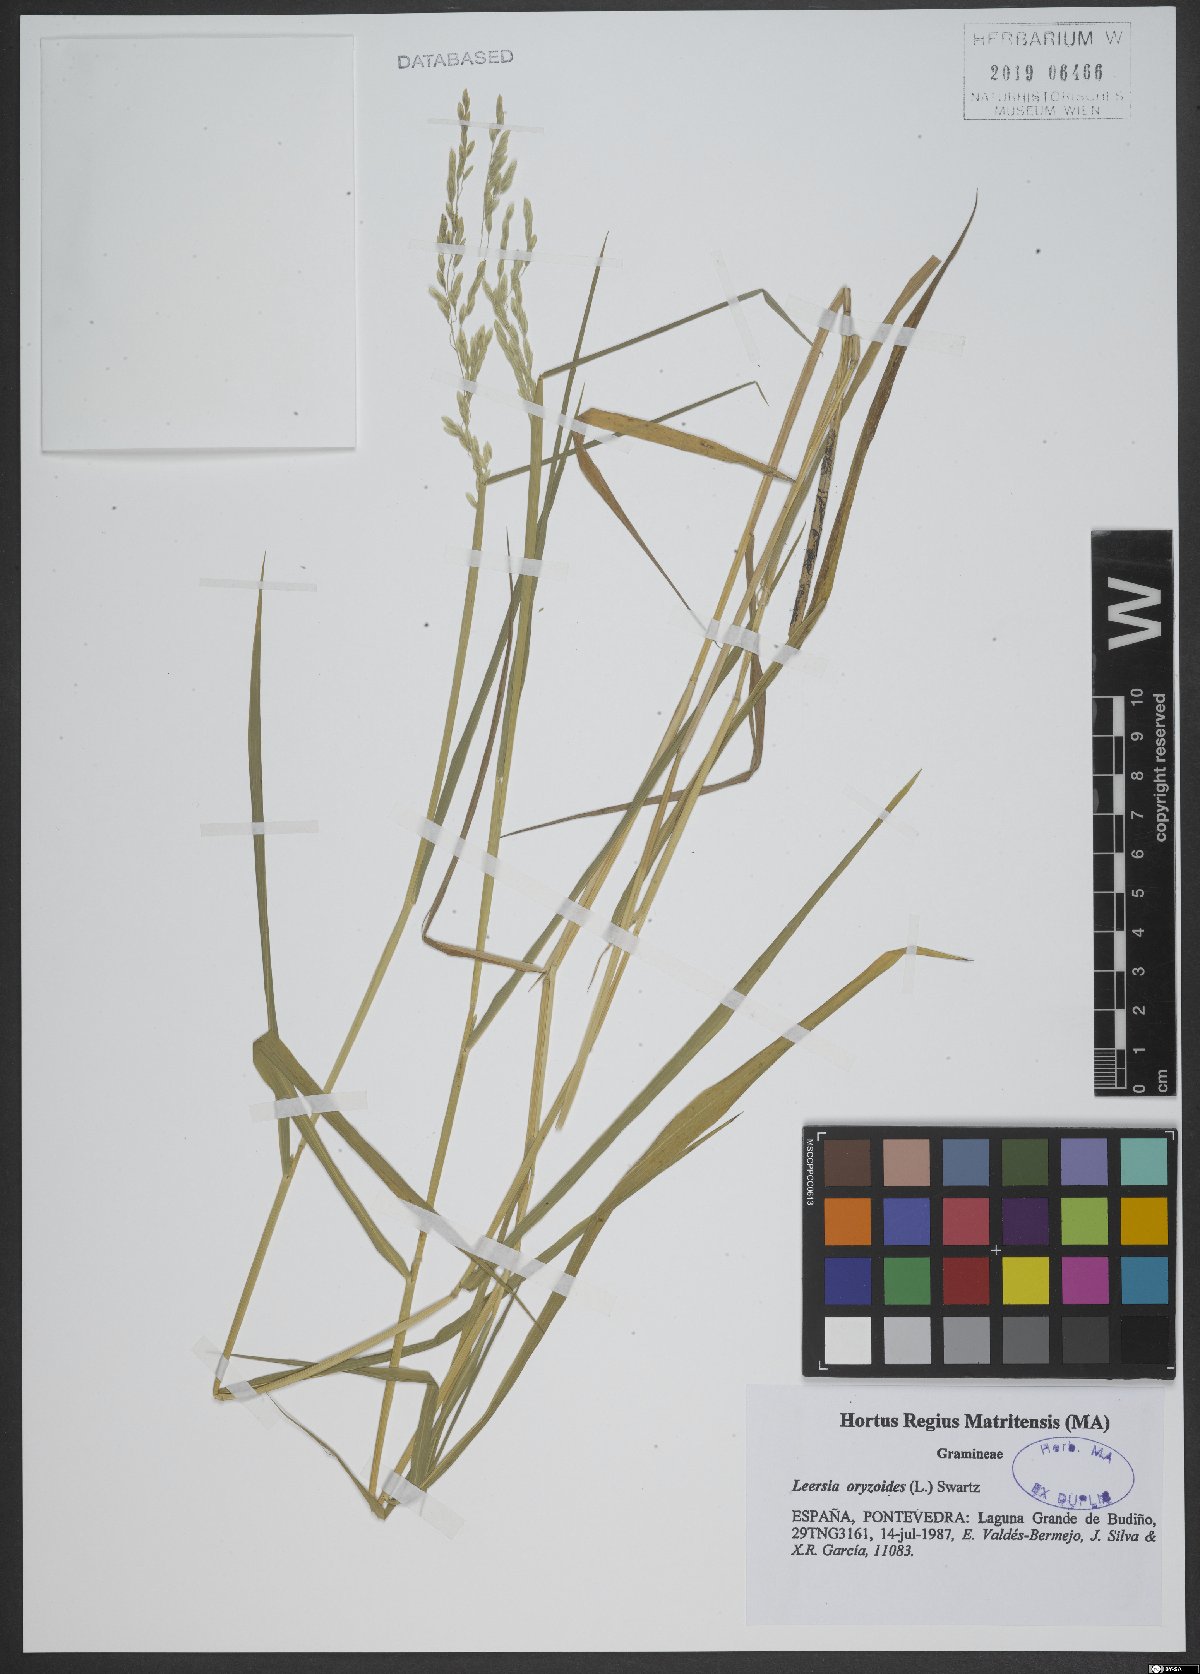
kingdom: Plantae
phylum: Tracheophyta
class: Liliopsida
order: Poales
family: Poaceae
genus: Leersia
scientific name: Leersia oryzoides
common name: Cut-grass
